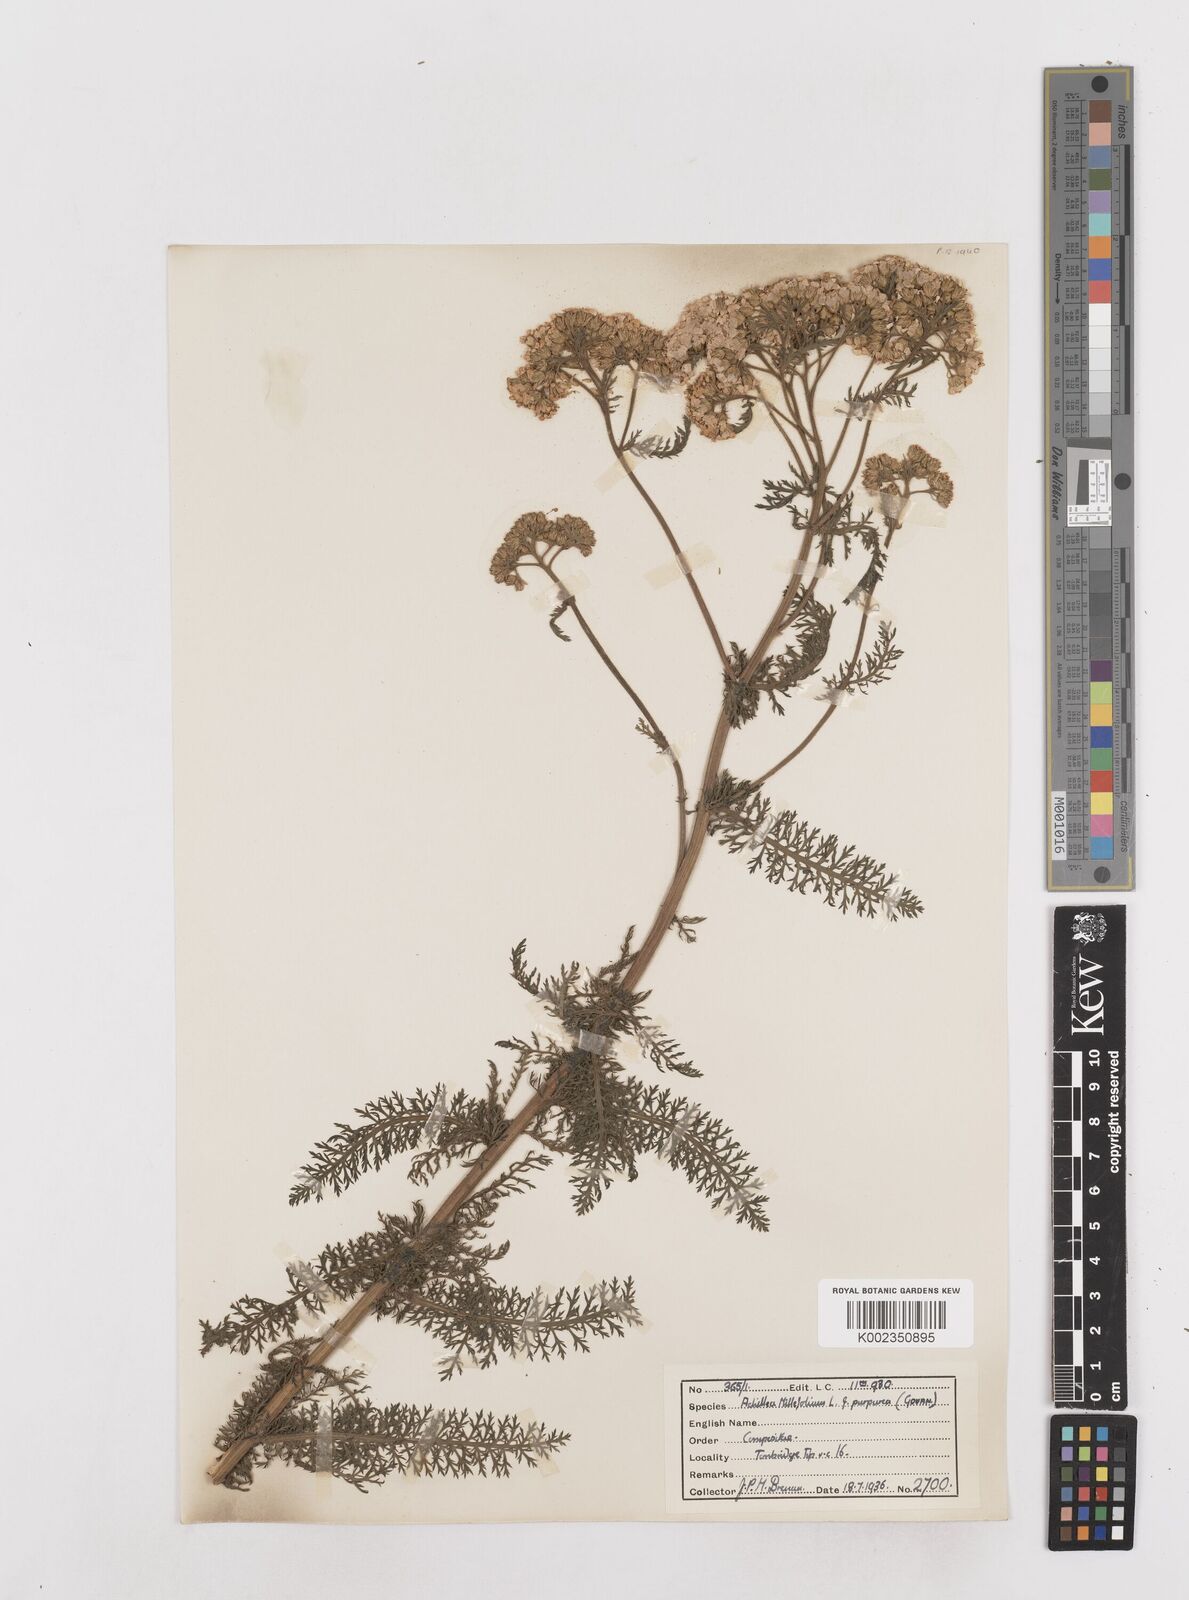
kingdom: Plantae
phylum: Tracheophyta
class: Magnoliopsida
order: Asterales
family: Asteraceae
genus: Achillea
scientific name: Achillea millefolium
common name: Yarrow
